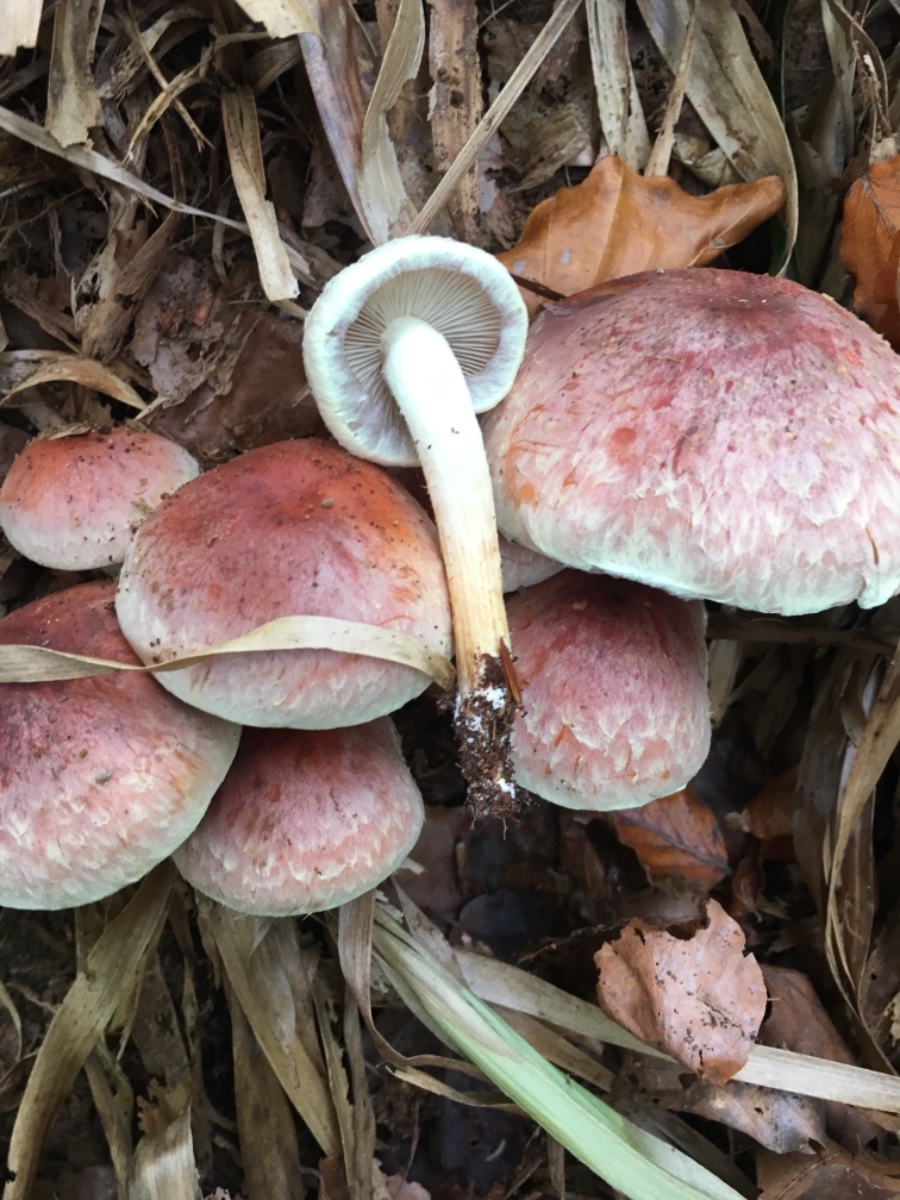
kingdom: Fungi
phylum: Basidiomycota
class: Agaricomycetes
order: Agaricales
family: Strophariaceae
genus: Hypholoma
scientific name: Hypholoma lateritium
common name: teglrød svovlhat
